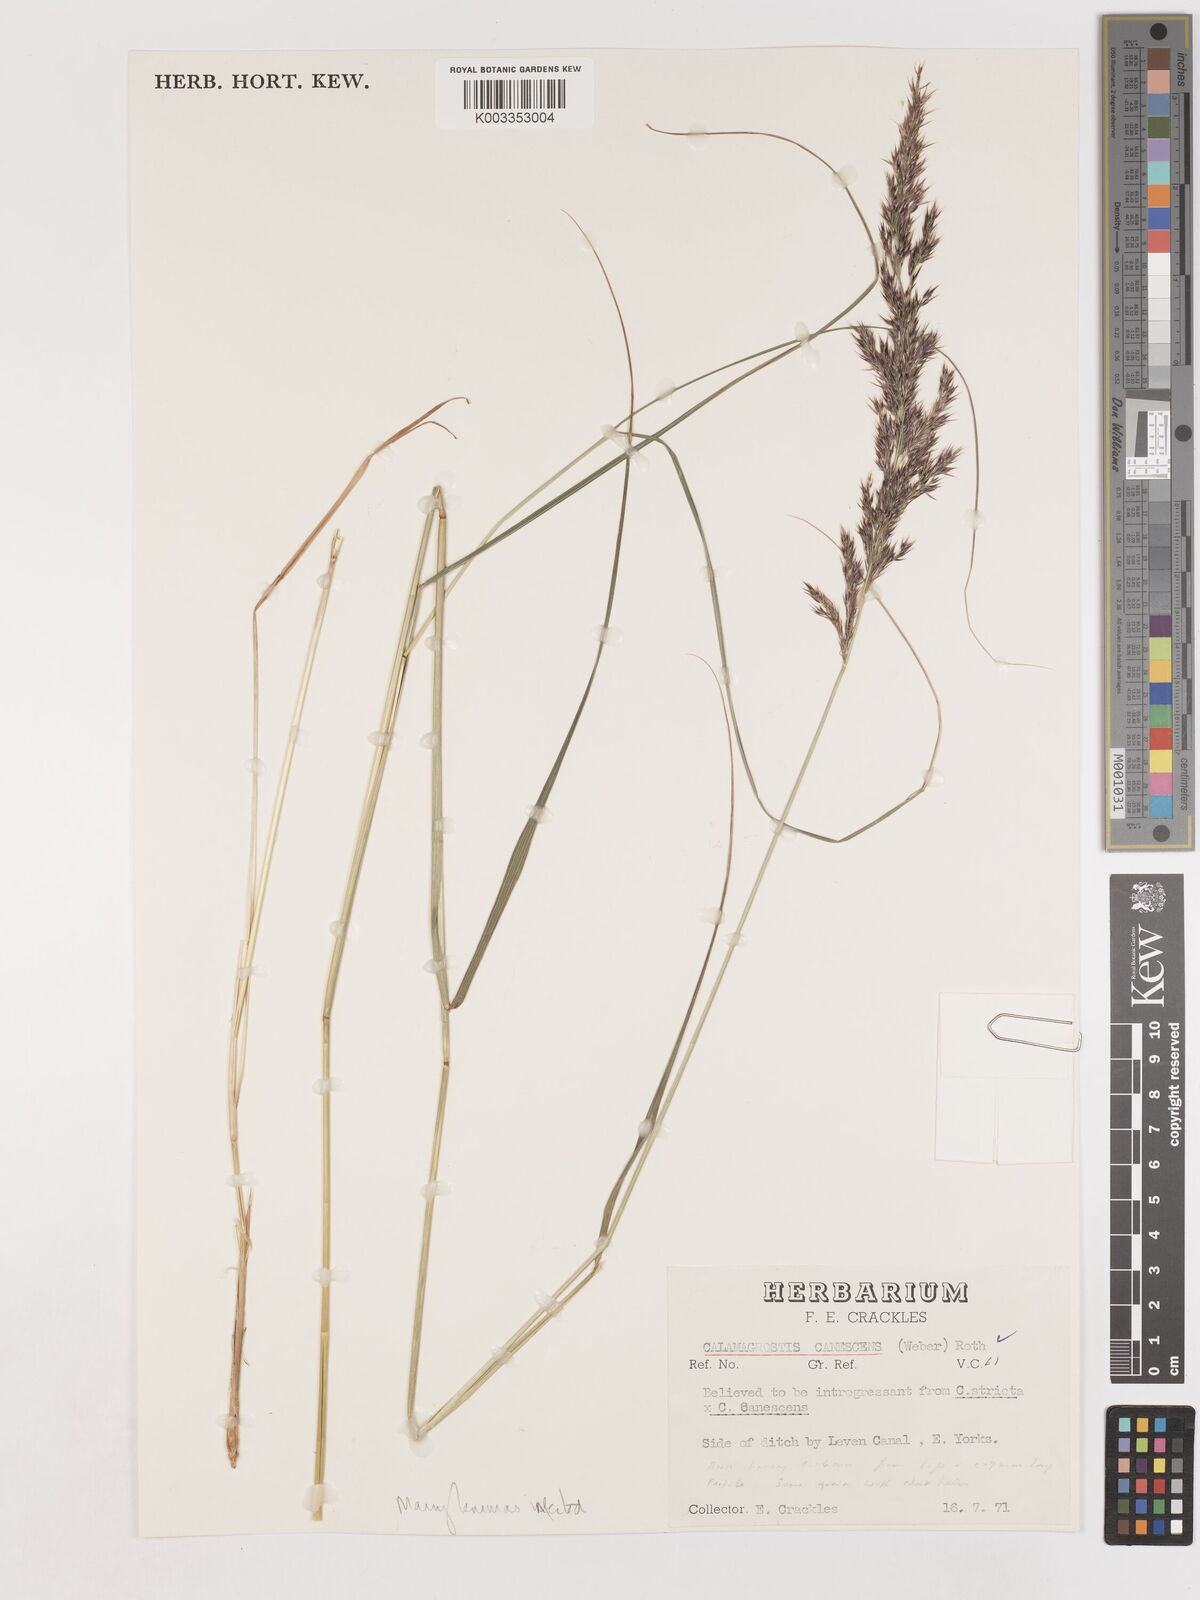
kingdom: Plantae
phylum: Tracheophyta
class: Liliopsida
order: Poales
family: Poaceae
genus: Calamagrostis
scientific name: Calamagrostis canescens
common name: Purple small-reed
